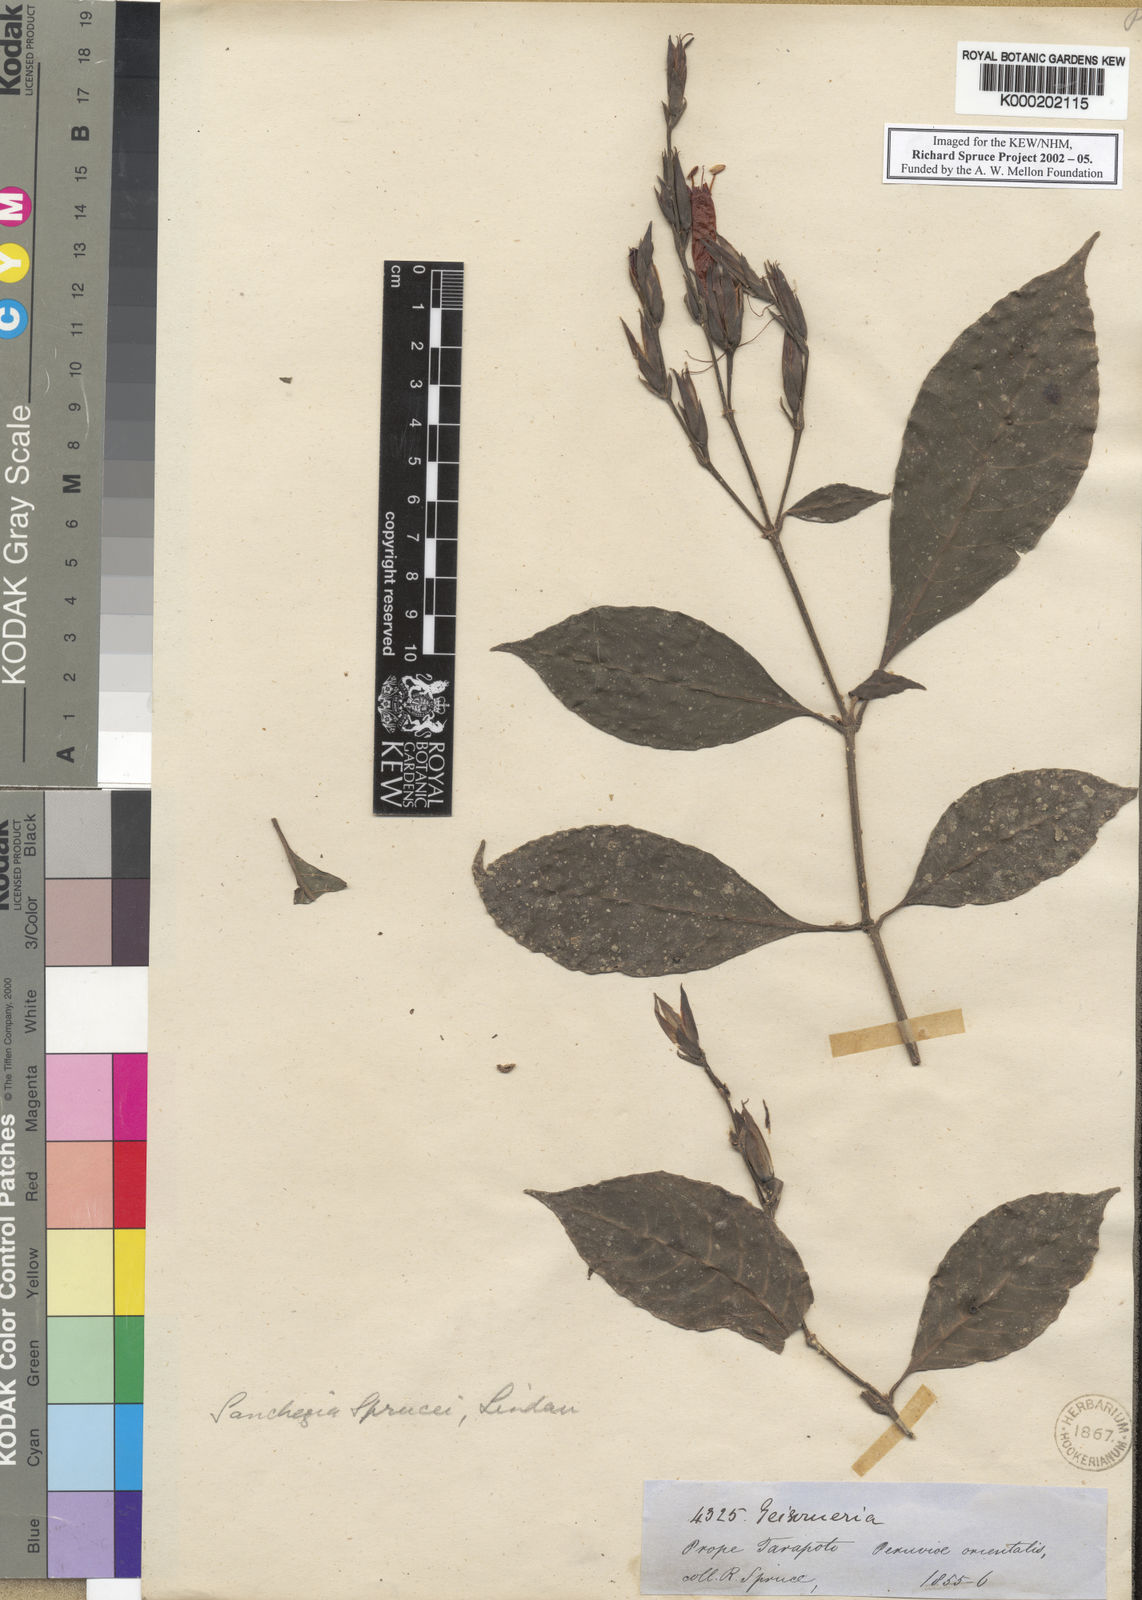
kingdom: Plantae
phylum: Tracheophyta
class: Magnoliopsida
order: Lamiales
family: Acanthaceae
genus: Sanchezia
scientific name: Sanchezia sprucei
